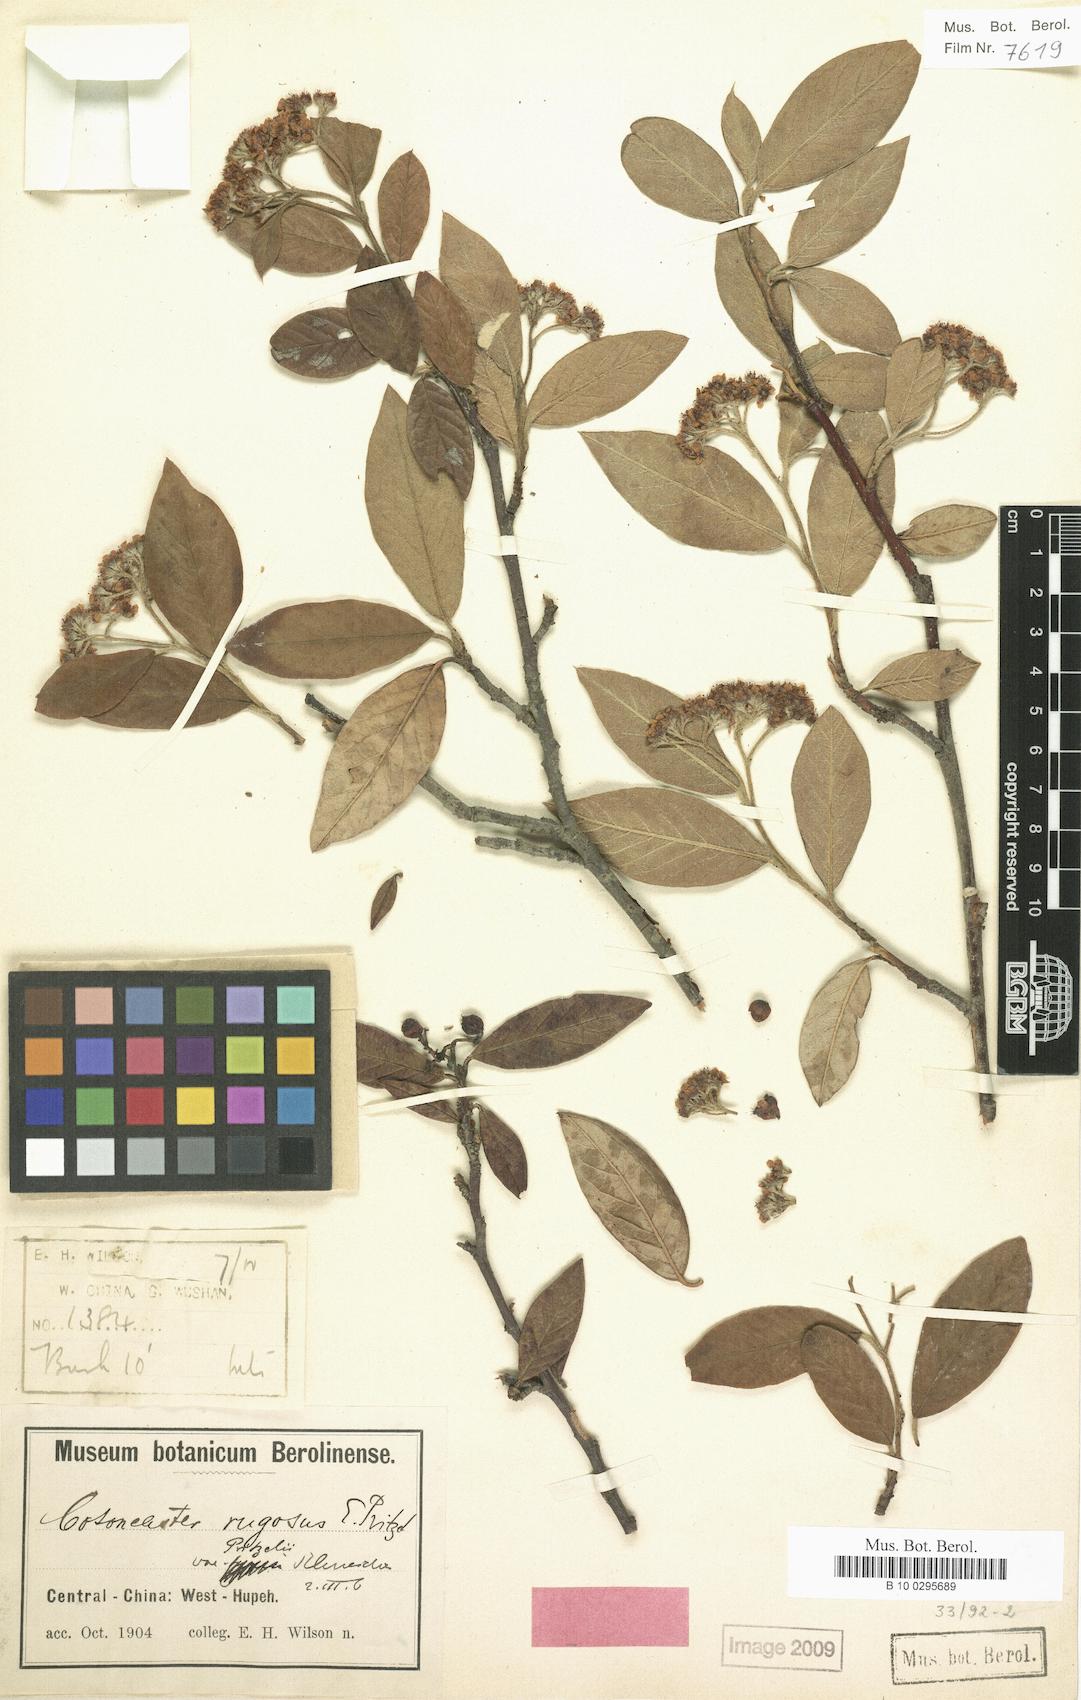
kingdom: Plantae
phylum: Tracheophyta
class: Magnoliopsida
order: Rosales
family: Rosaceae
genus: Cotoneaster
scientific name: Cotoneaster salicifolius
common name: Willow-leaved cotoneaster
